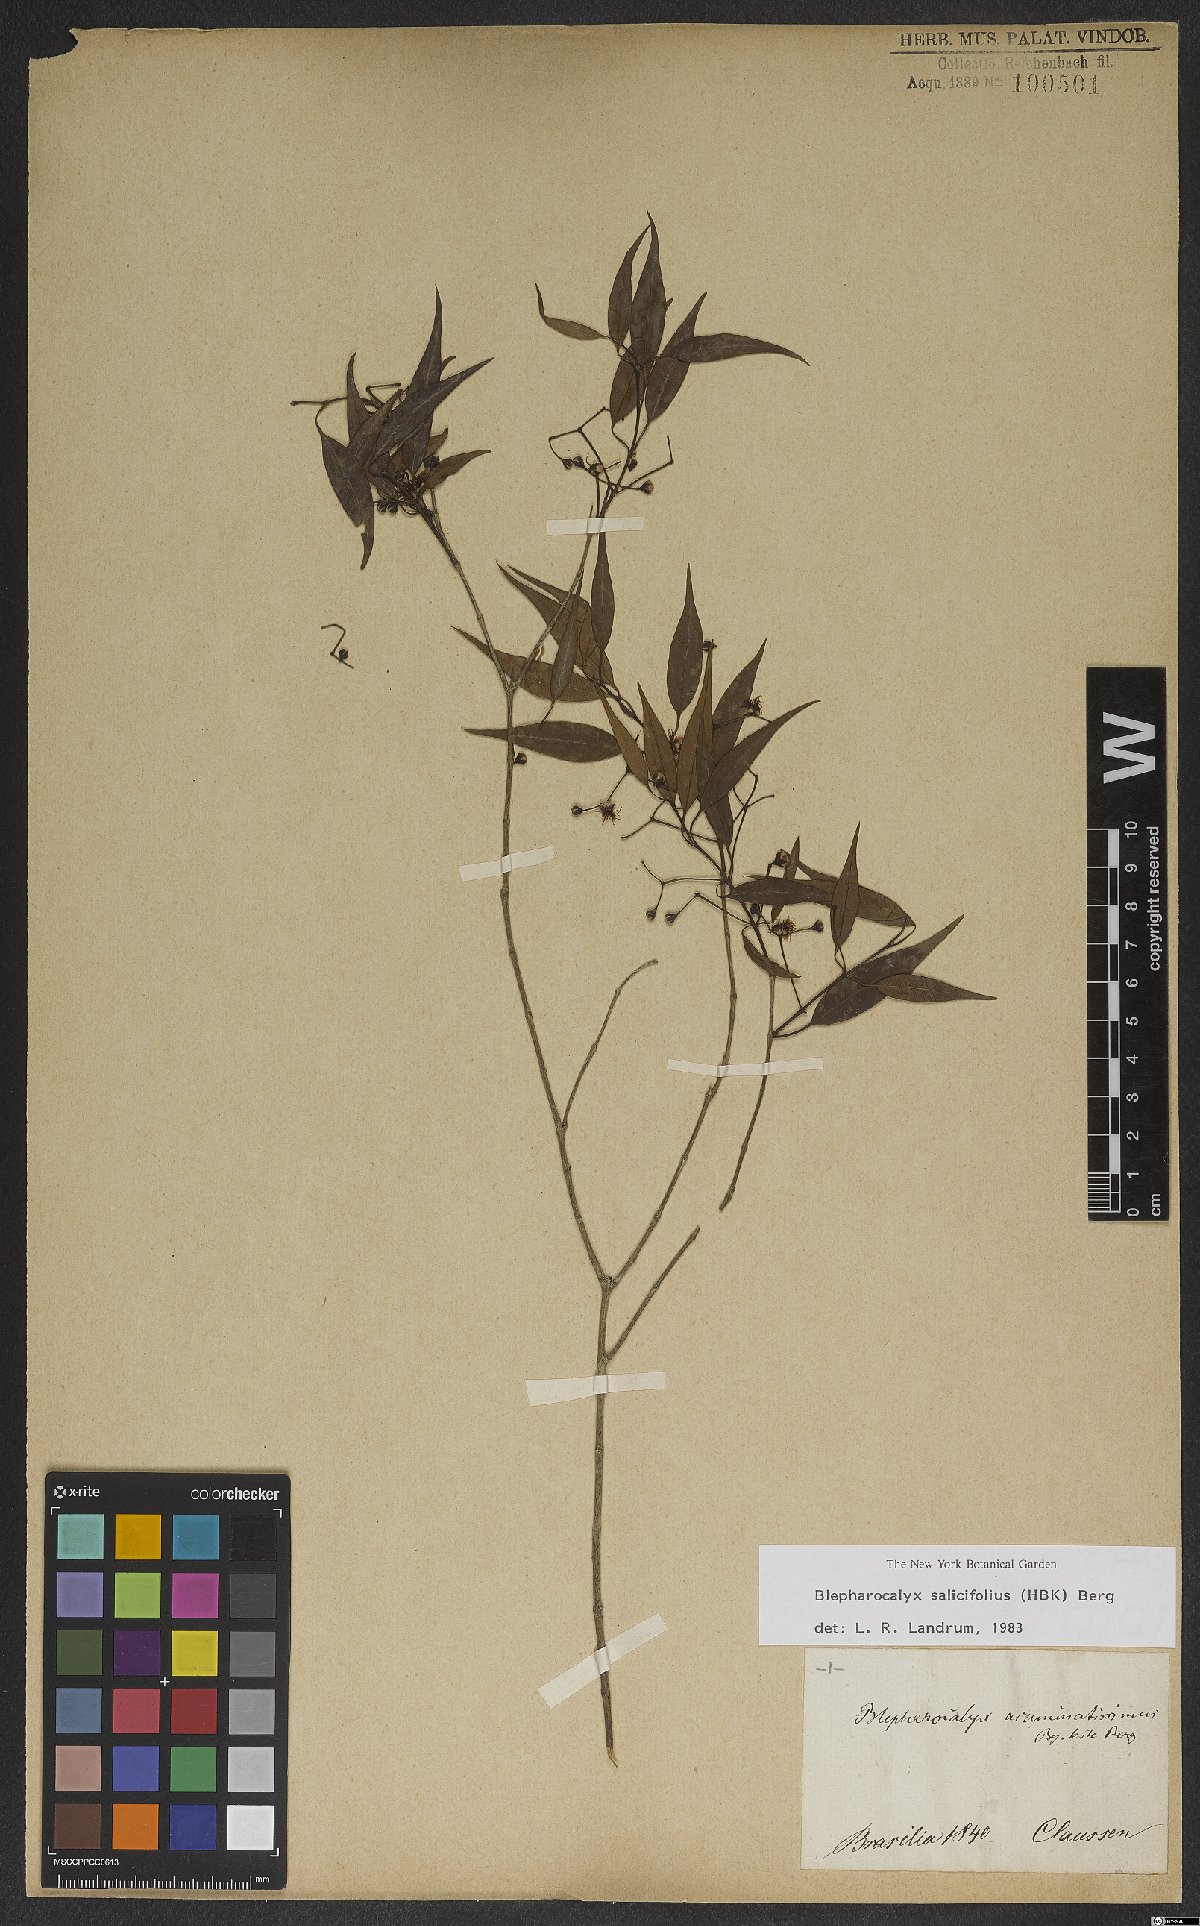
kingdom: Plantae
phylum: Tracheophyta
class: Magnoliopsida
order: Myrtales
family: Myrtaceae
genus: Blepharocalyx
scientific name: Blepharocalyx salicifolius
